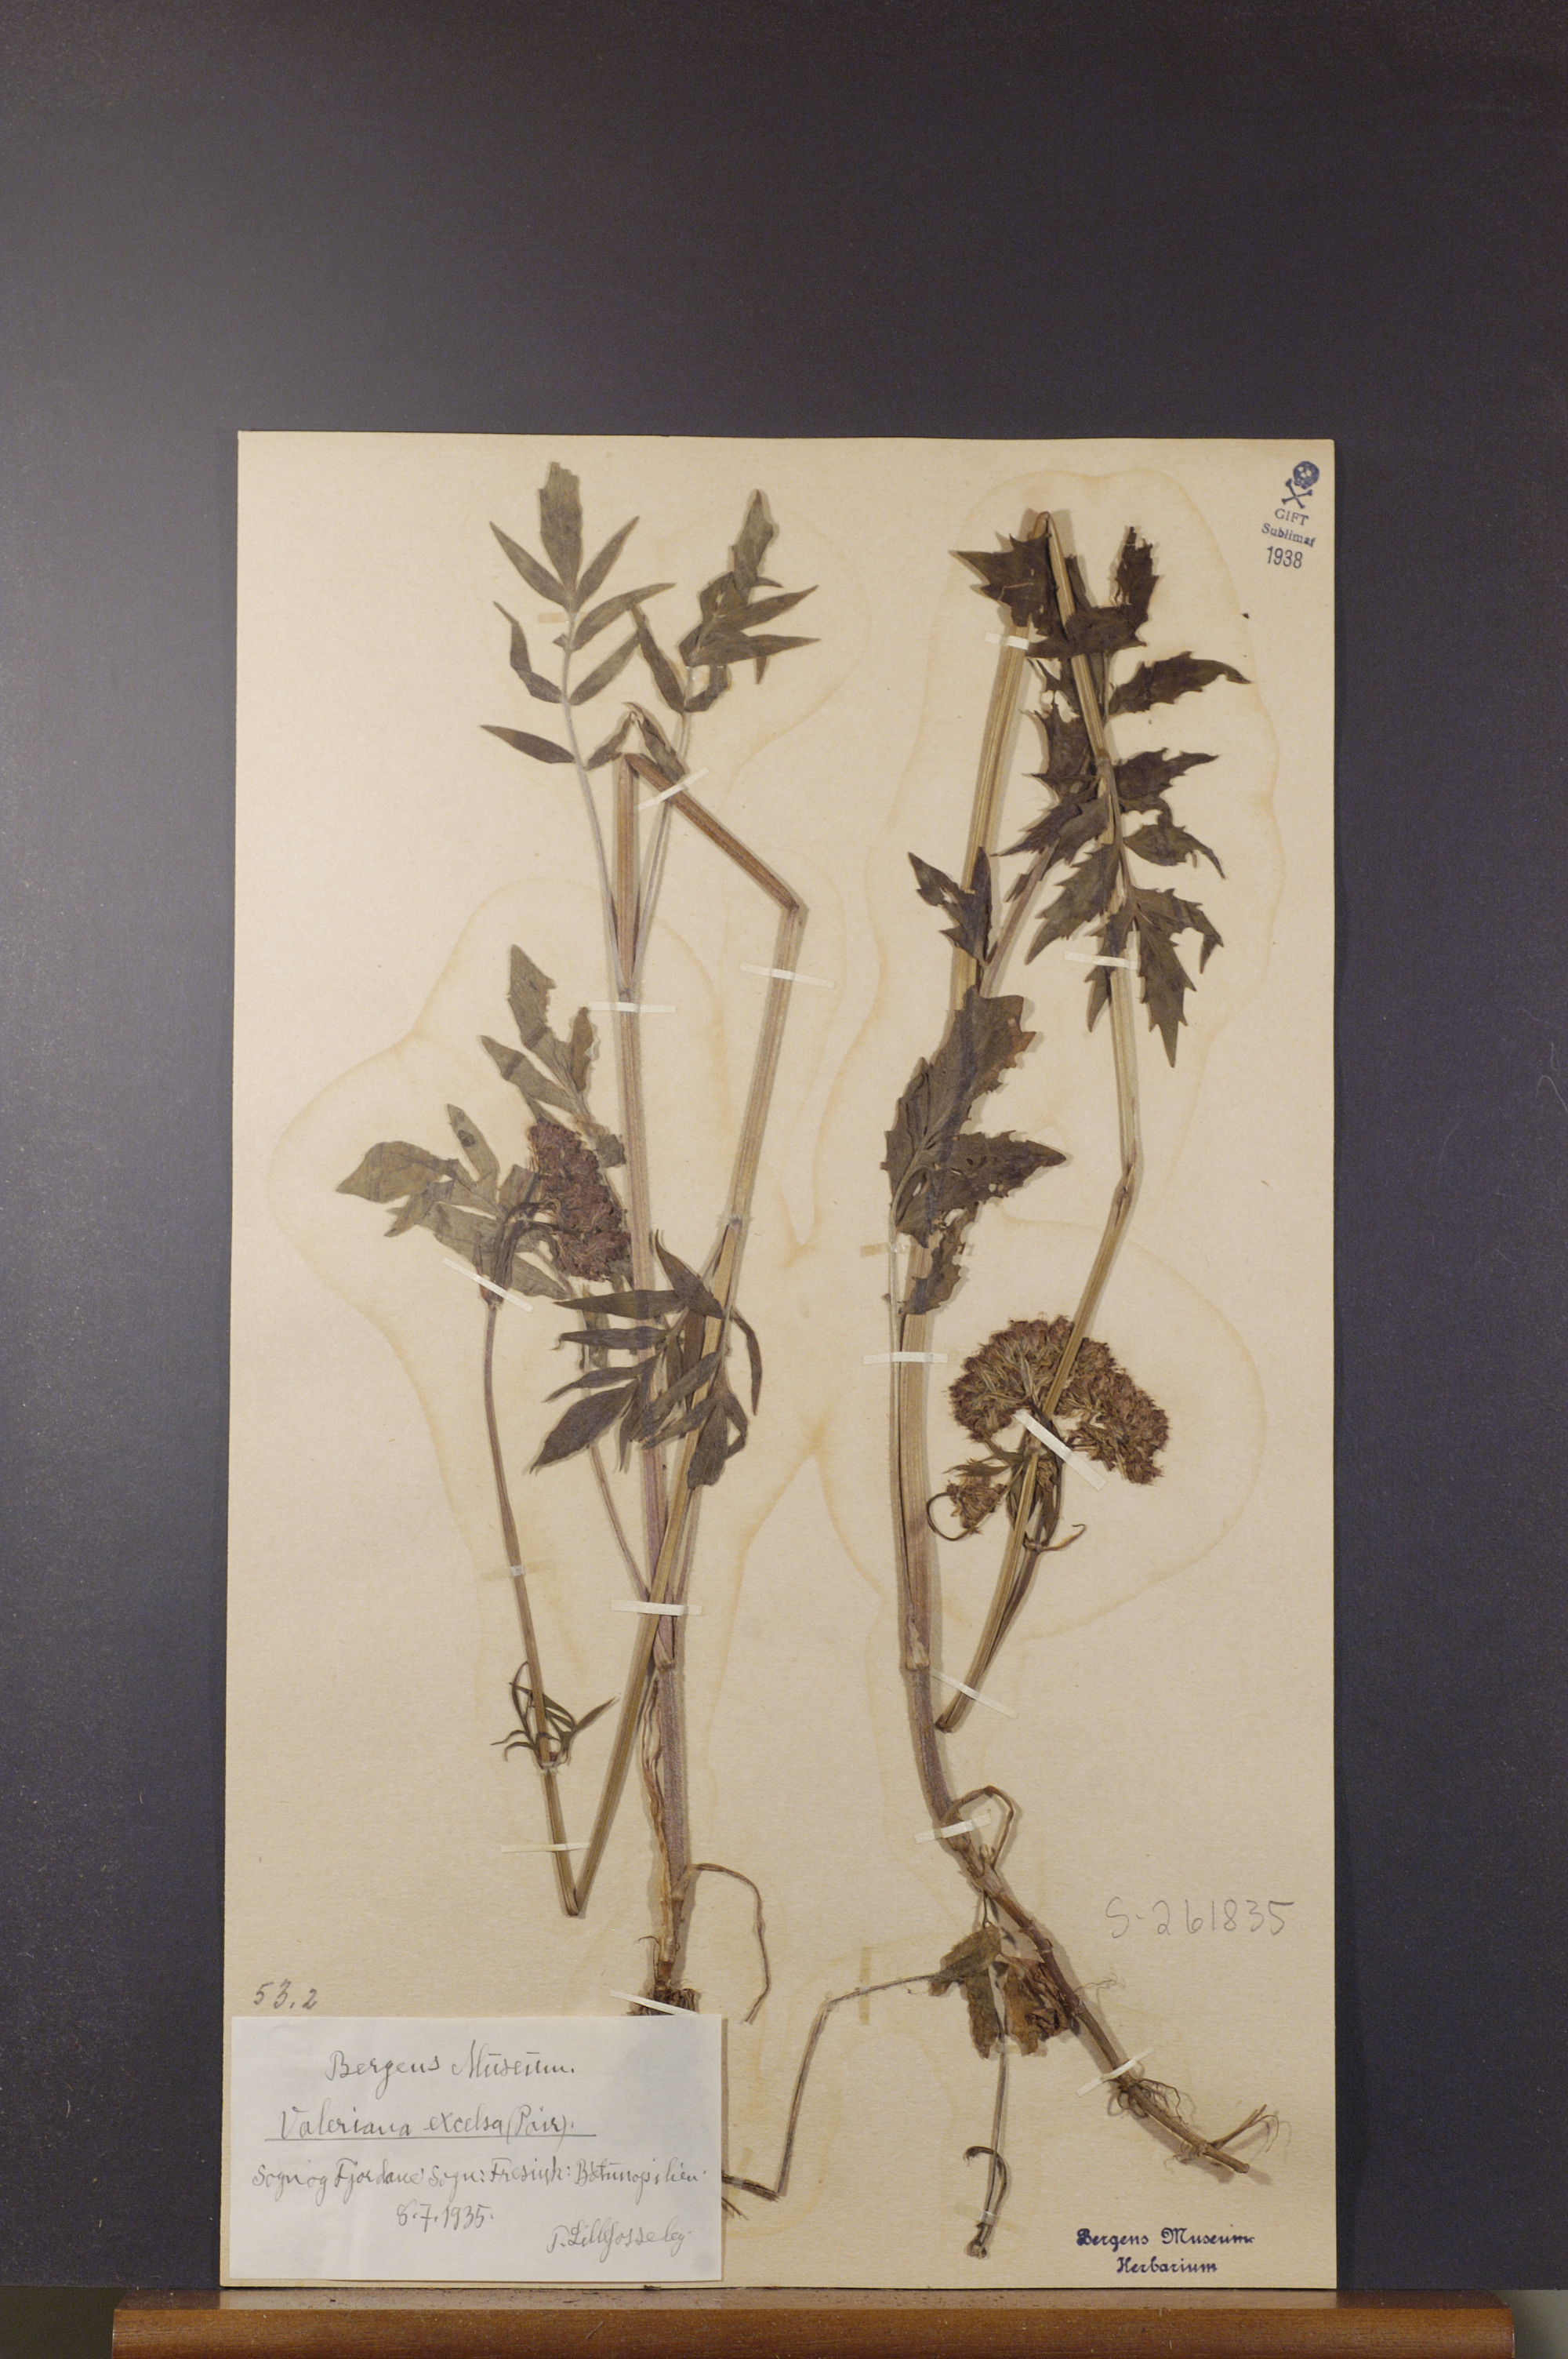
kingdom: Plantae
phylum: Tracheophyta
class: Magnoliopsida
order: Dipsacales
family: Caprifoliaceae
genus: Valeriana
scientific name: Valeriana sambucifolia
